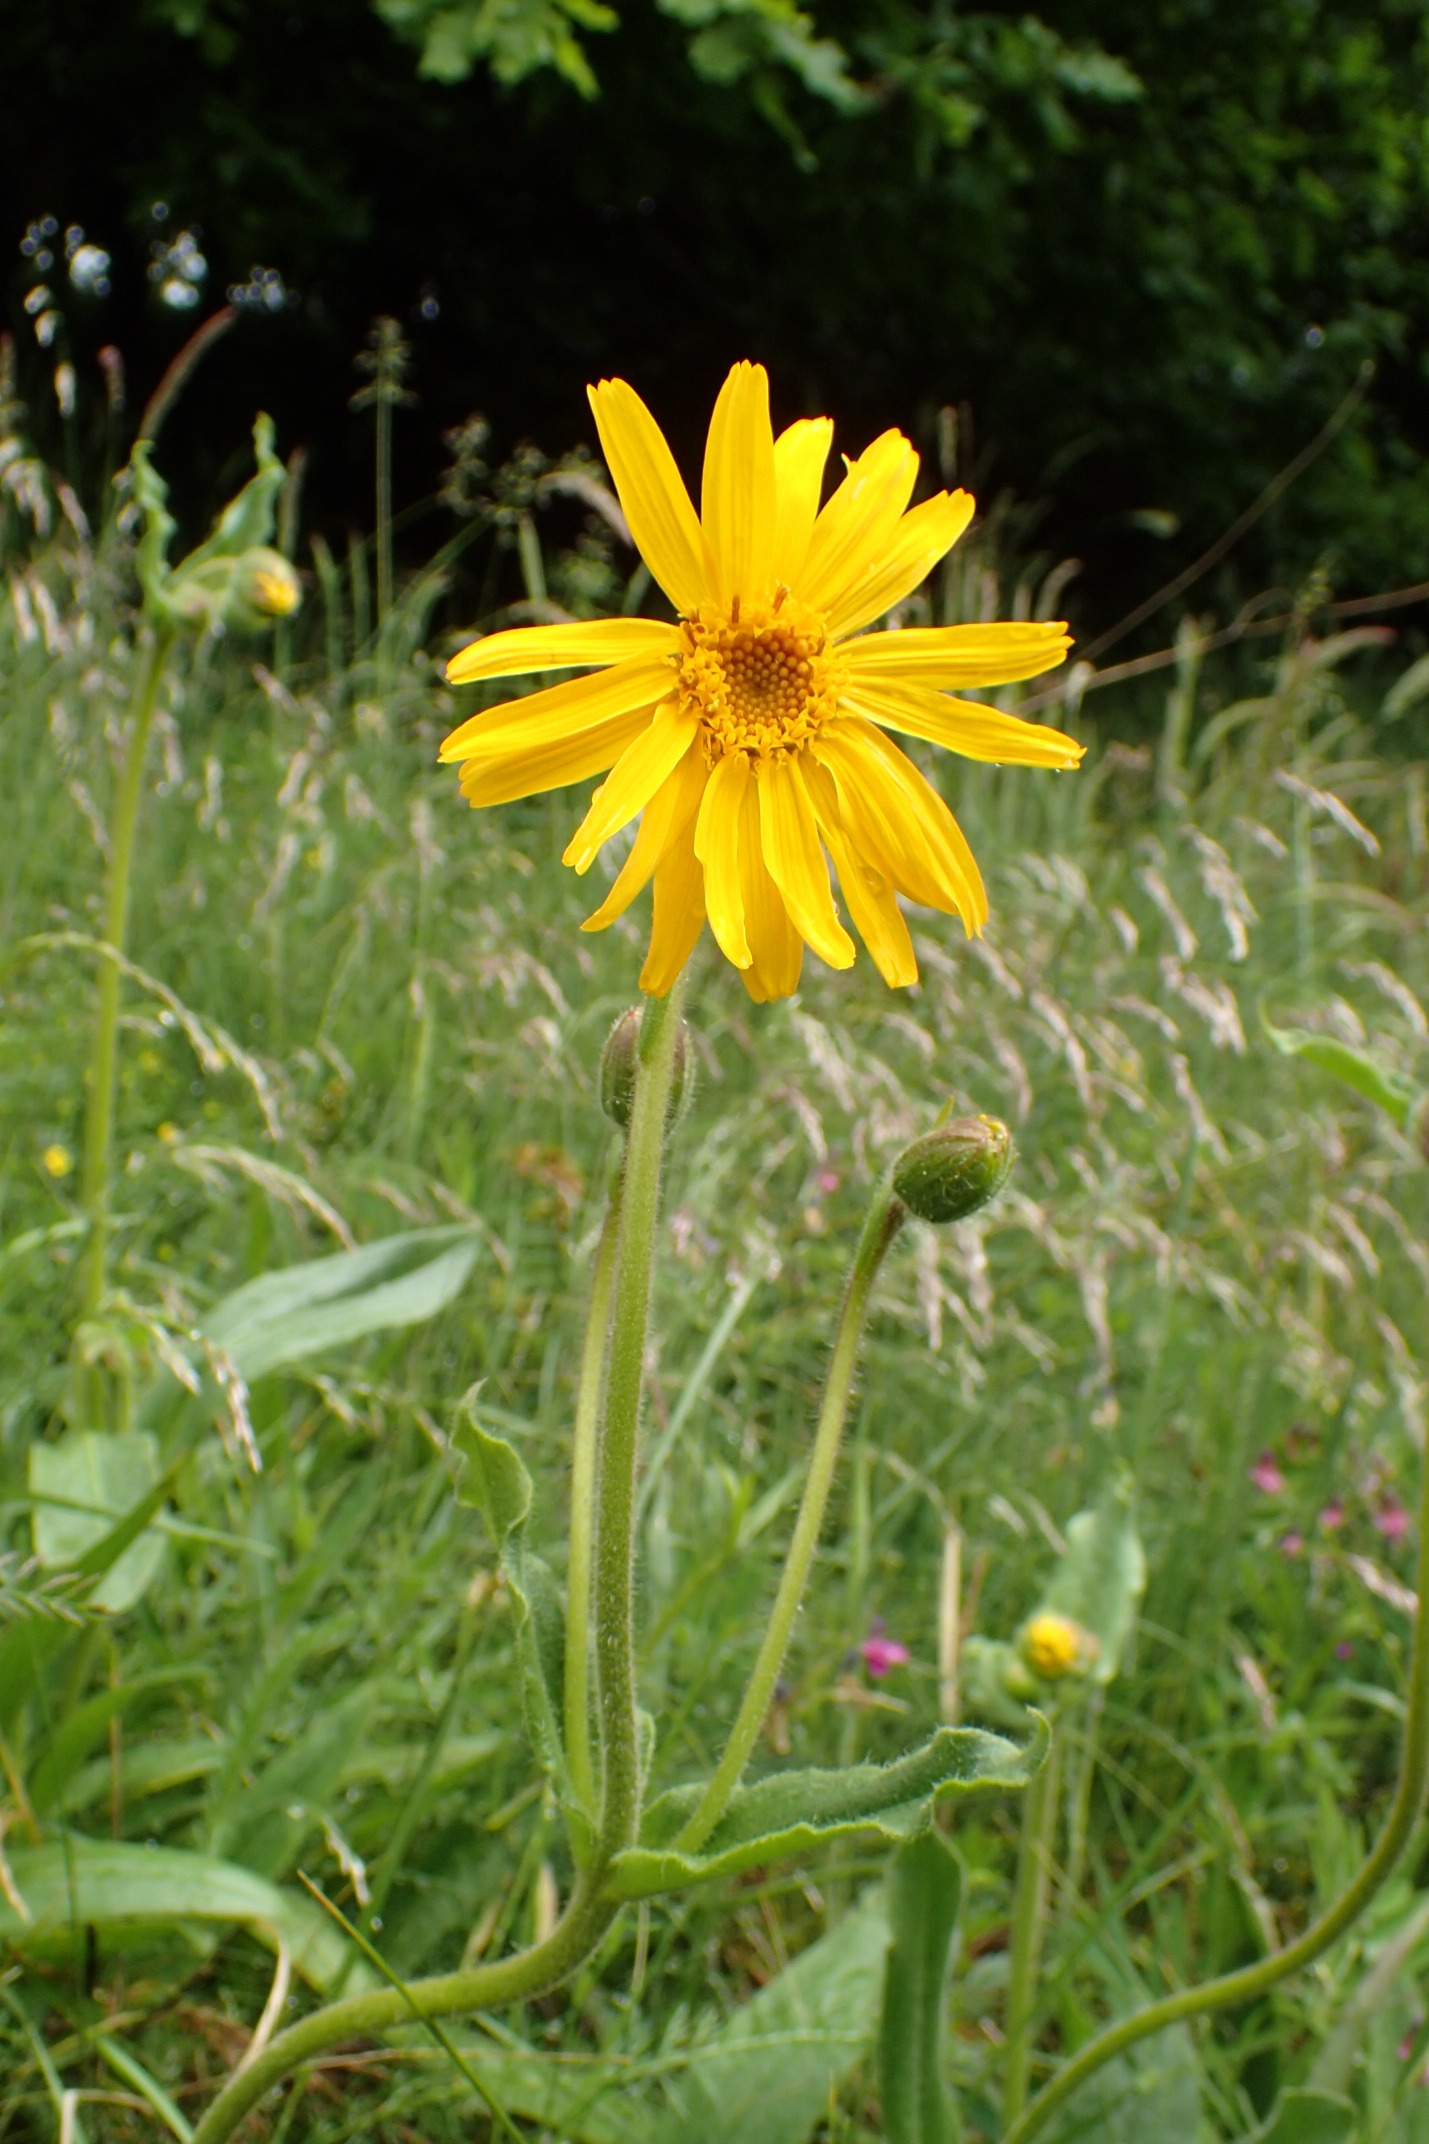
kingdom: Plantae
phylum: Tracheophyta
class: Magnoliopsida
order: Asterales
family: Asteraceae
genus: Arnica
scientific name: Arnica montana
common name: Guldblomme
